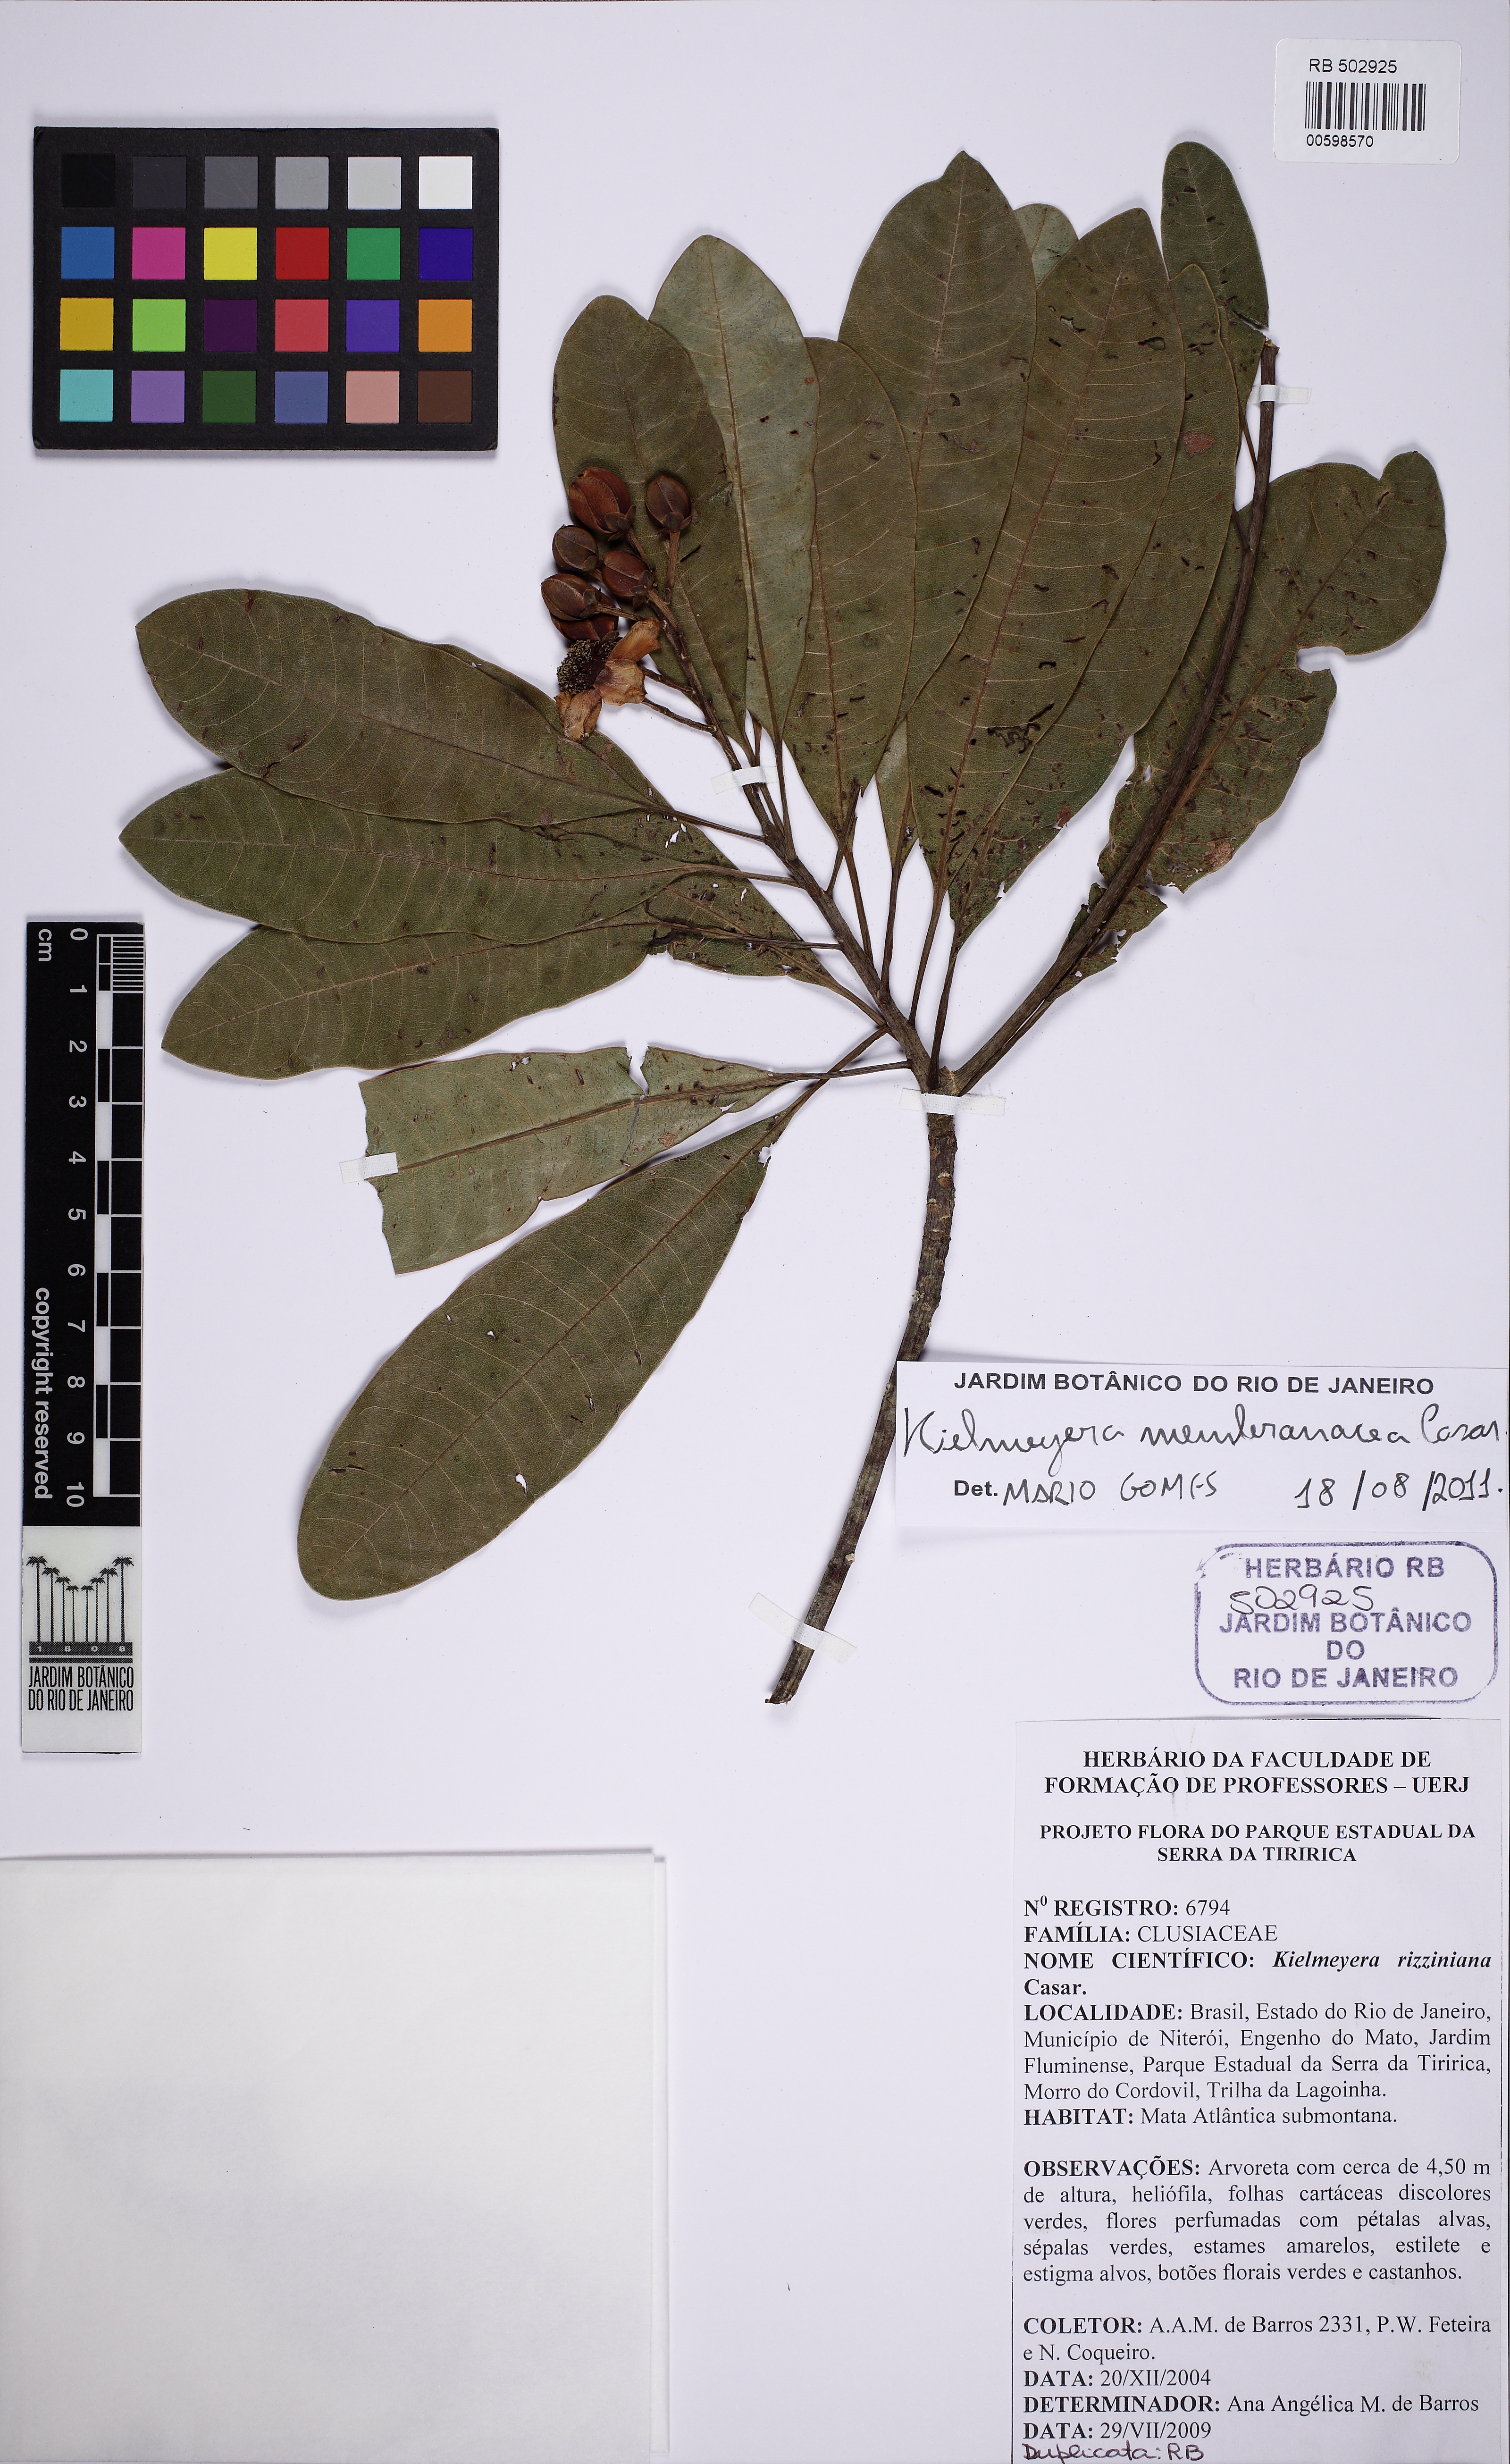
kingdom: Plantae
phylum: Tracheophyta
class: Magnoliopsida
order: Malpighiales
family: Calophyllaceae
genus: Kielmeyera
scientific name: Kielmeyera membranacea
